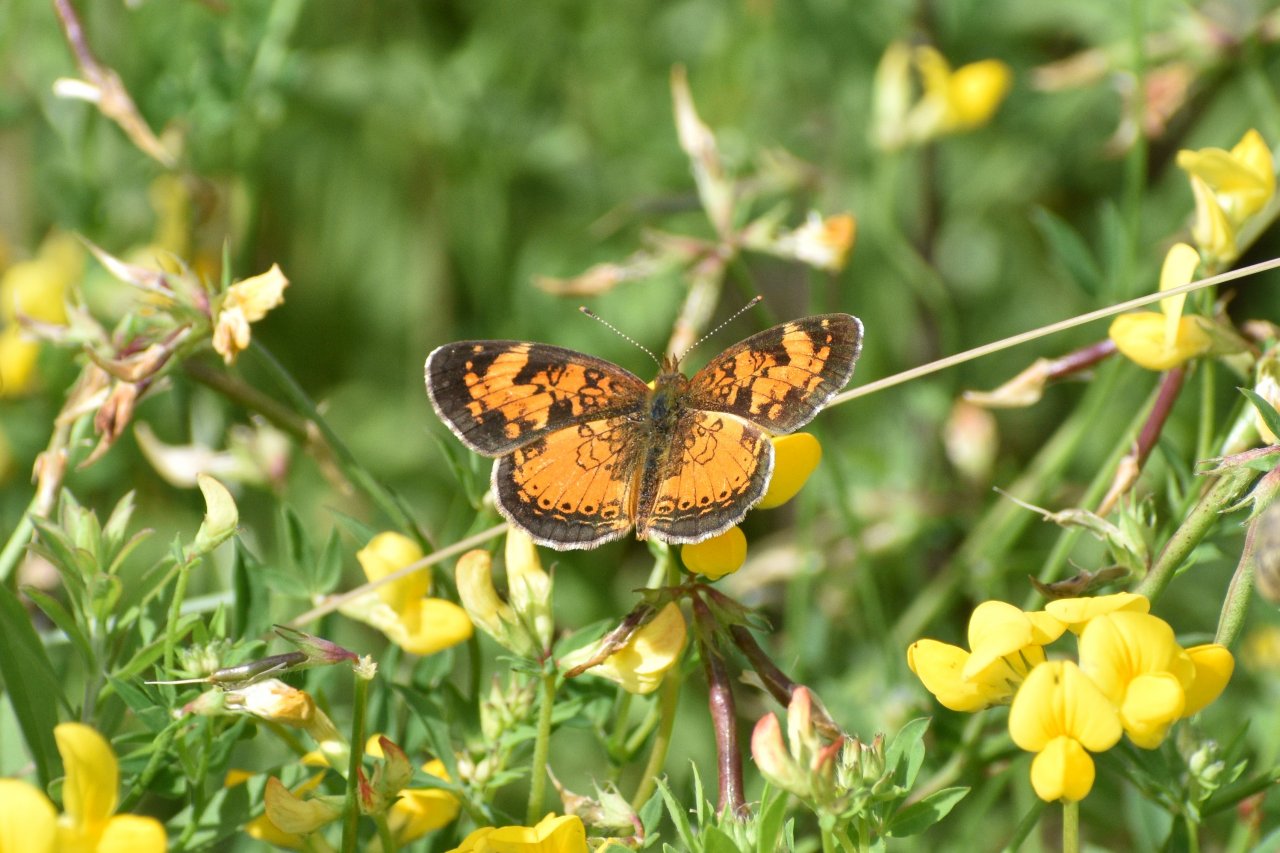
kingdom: Animalia
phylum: Arthropoda
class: Insecta
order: Lepidoptera
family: Nymphalidae
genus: Phyciodes
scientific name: Phyciodes tharos
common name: Northern Crescent
